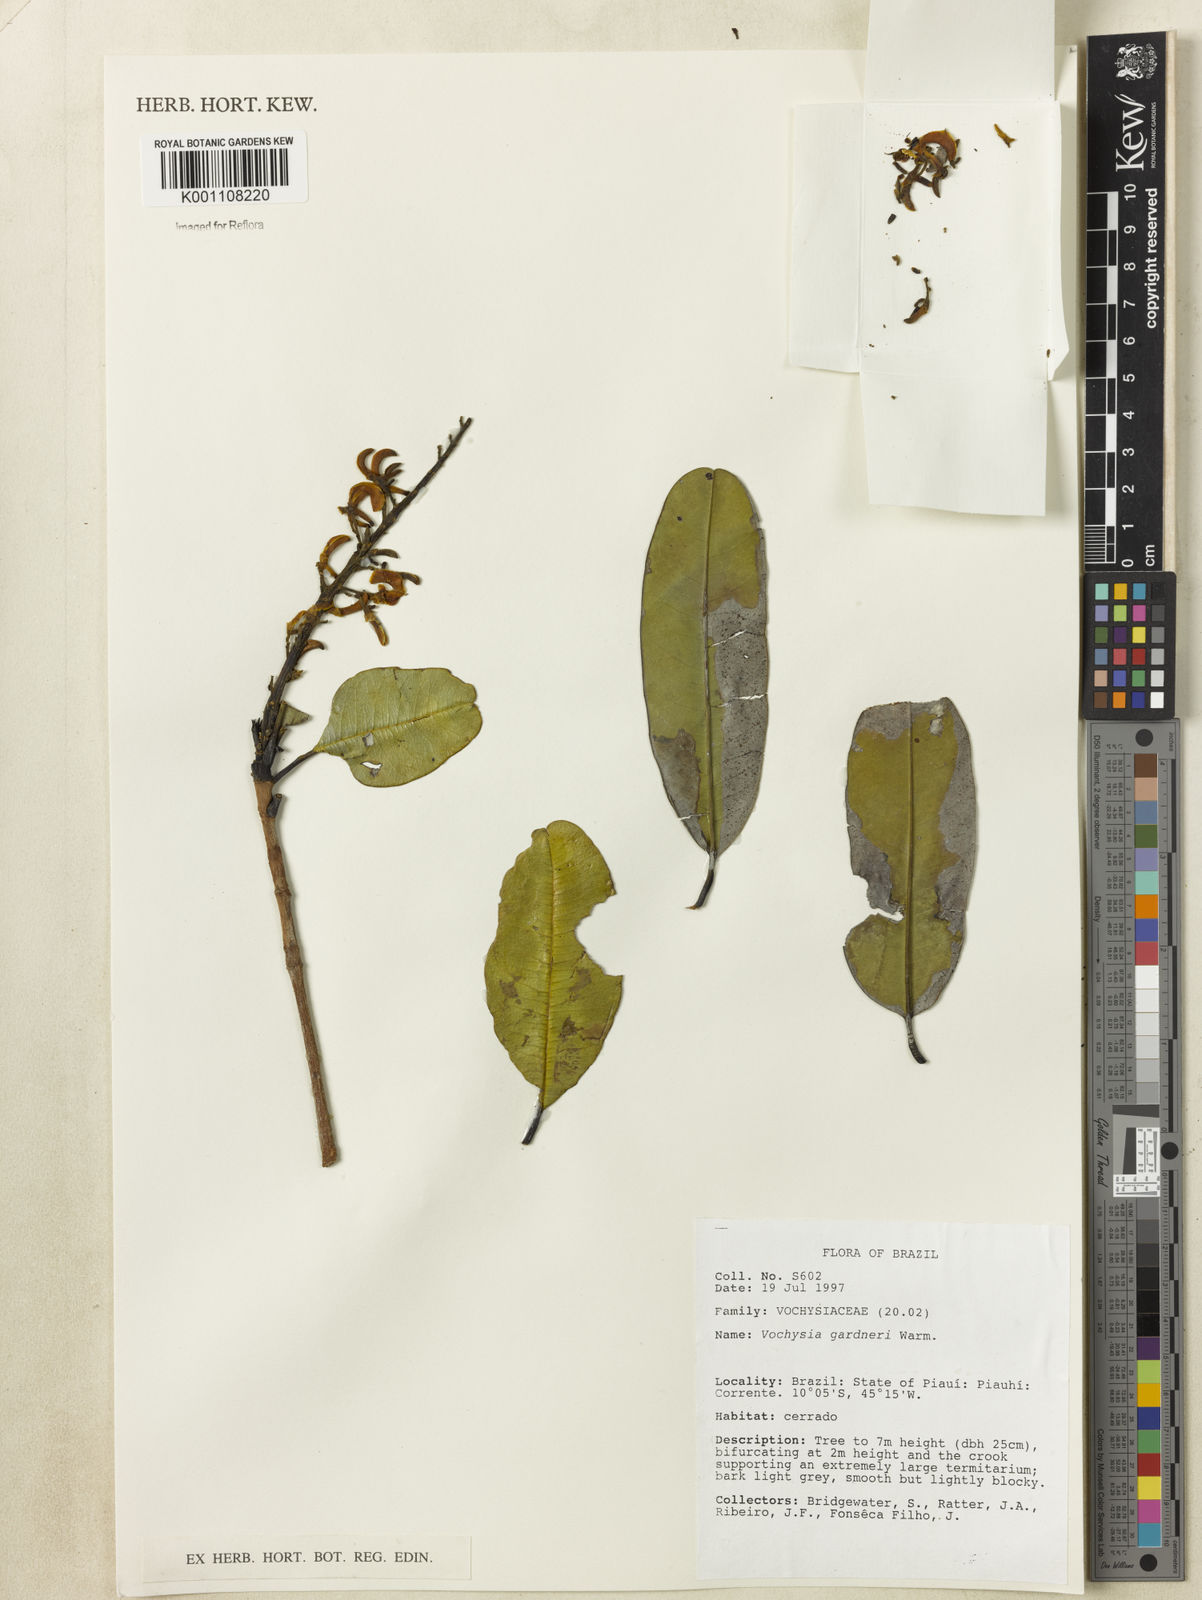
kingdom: Plantae
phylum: Tracheophyta
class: Magnoliopsida
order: Myrtales
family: Vochysiaceae
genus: Vochysia
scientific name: Vochysia gardneri
